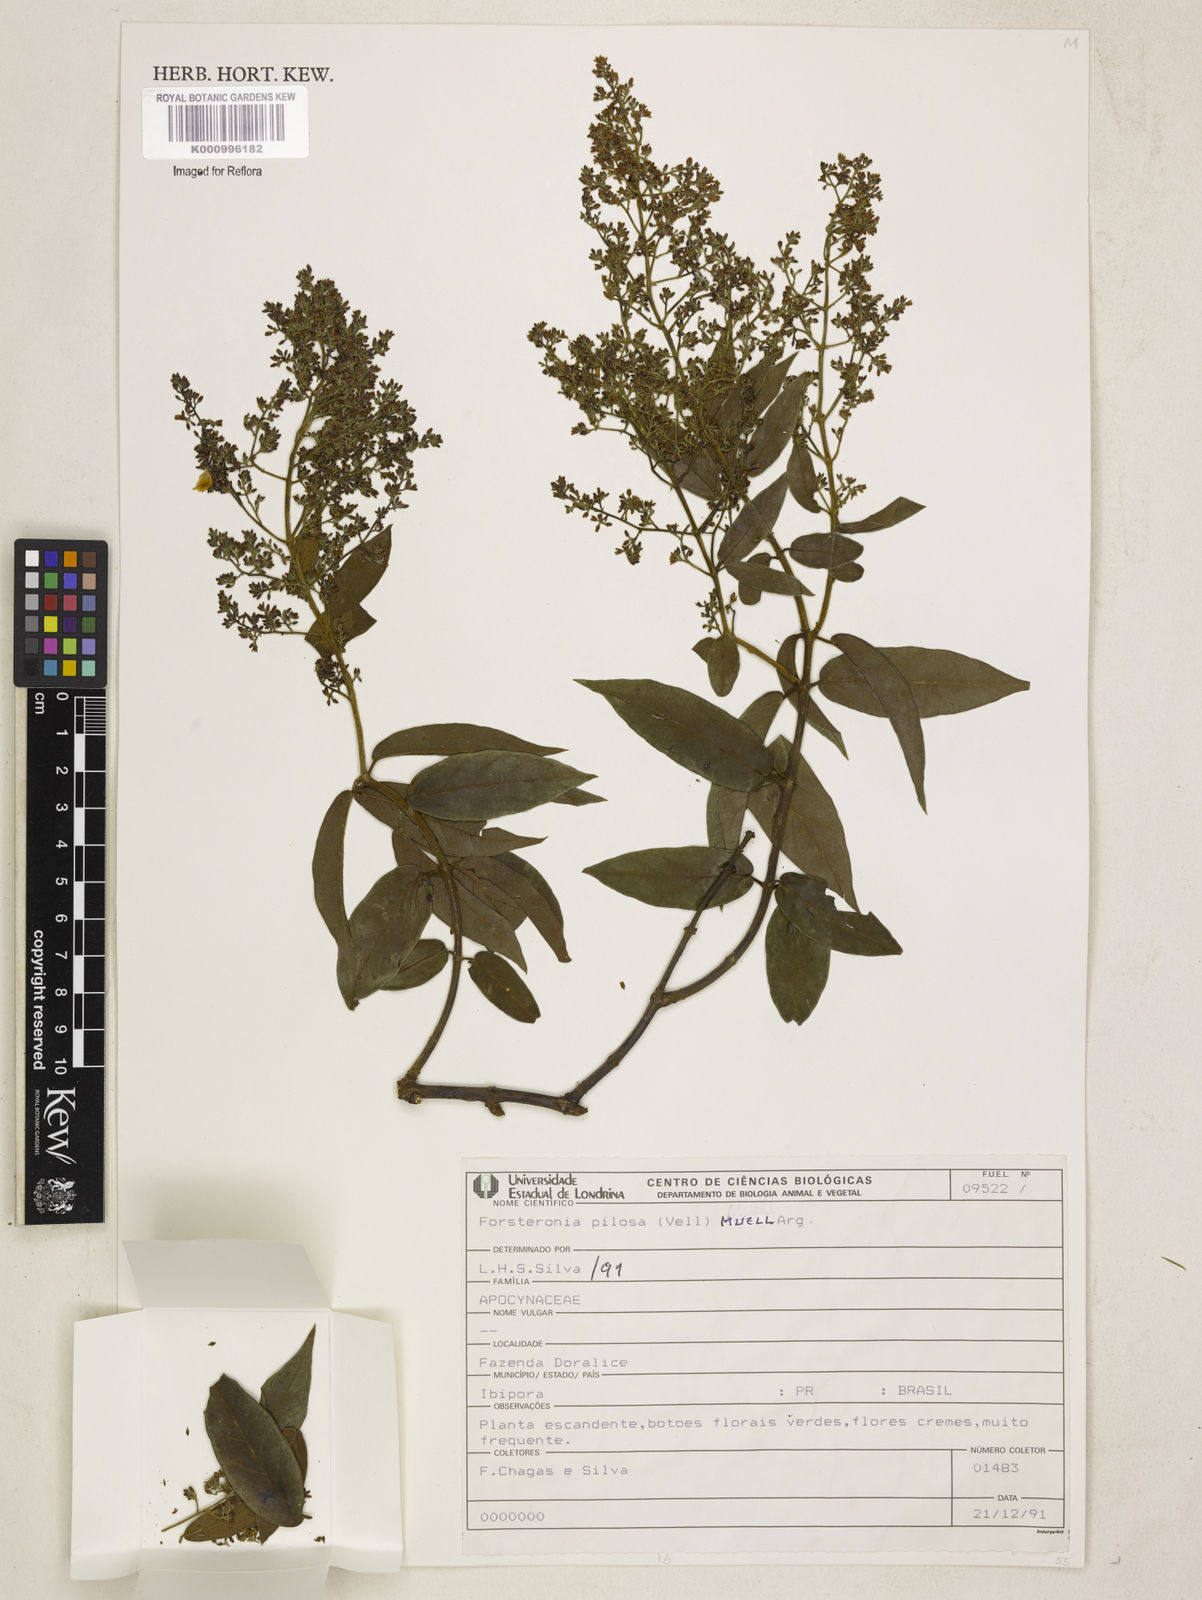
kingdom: Plantae
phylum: Tracheophyta
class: Magnoliopsida
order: Gentianales
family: Apocynaceae
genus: Forsteronia
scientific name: Forsteronia
